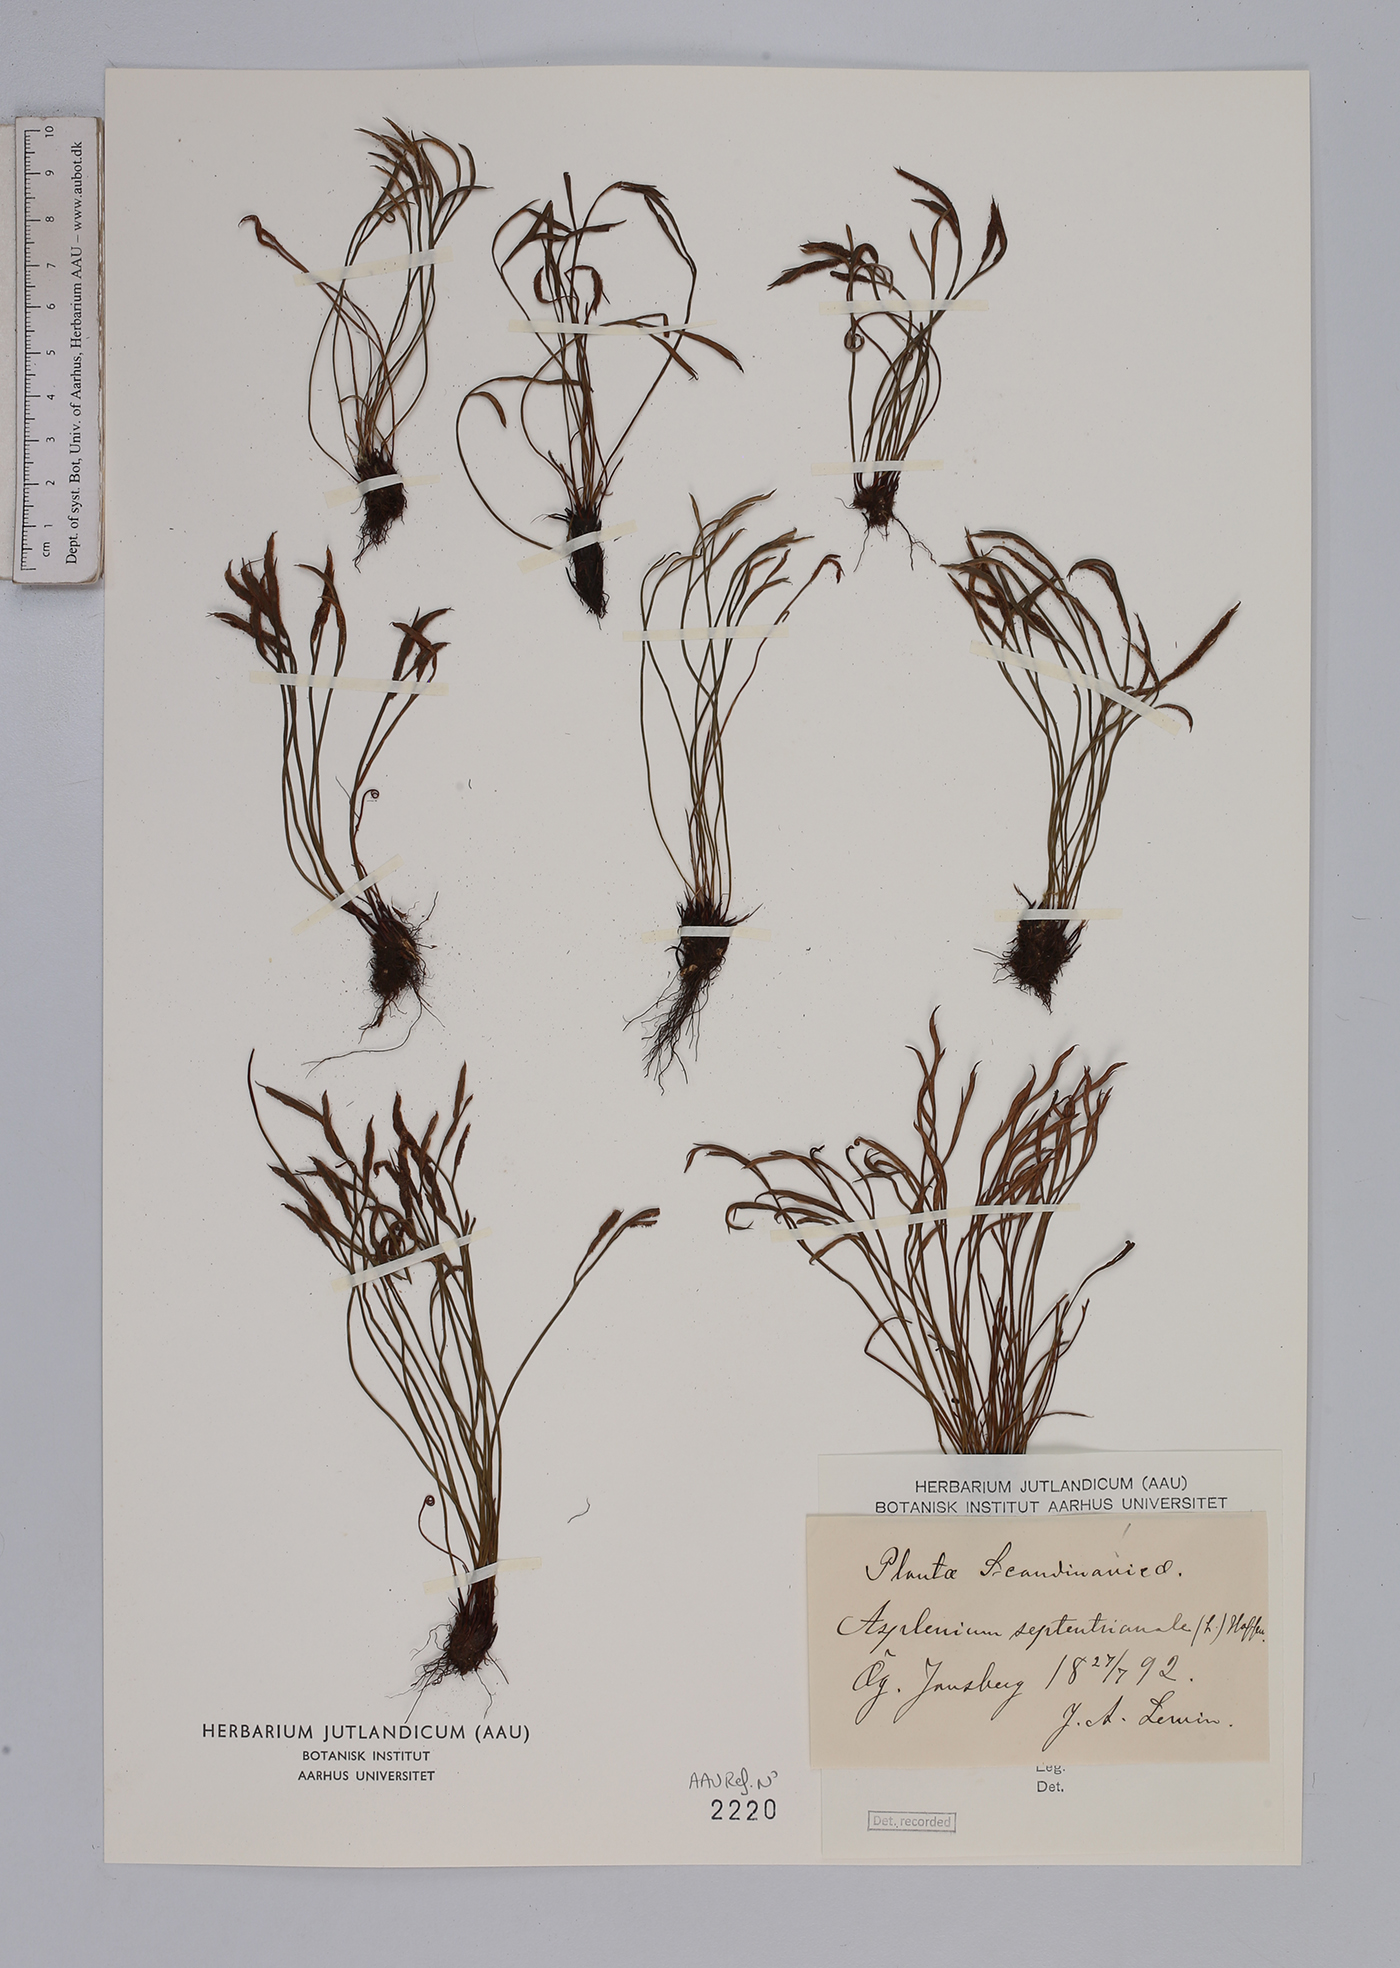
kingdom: Plantae
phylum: Tracheophyta
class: Polypodiopsida
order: Polypodiales
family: Aspleniaceae
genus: Asplenium
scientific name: Asplenium septentrionale
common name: Forked spleenwort
